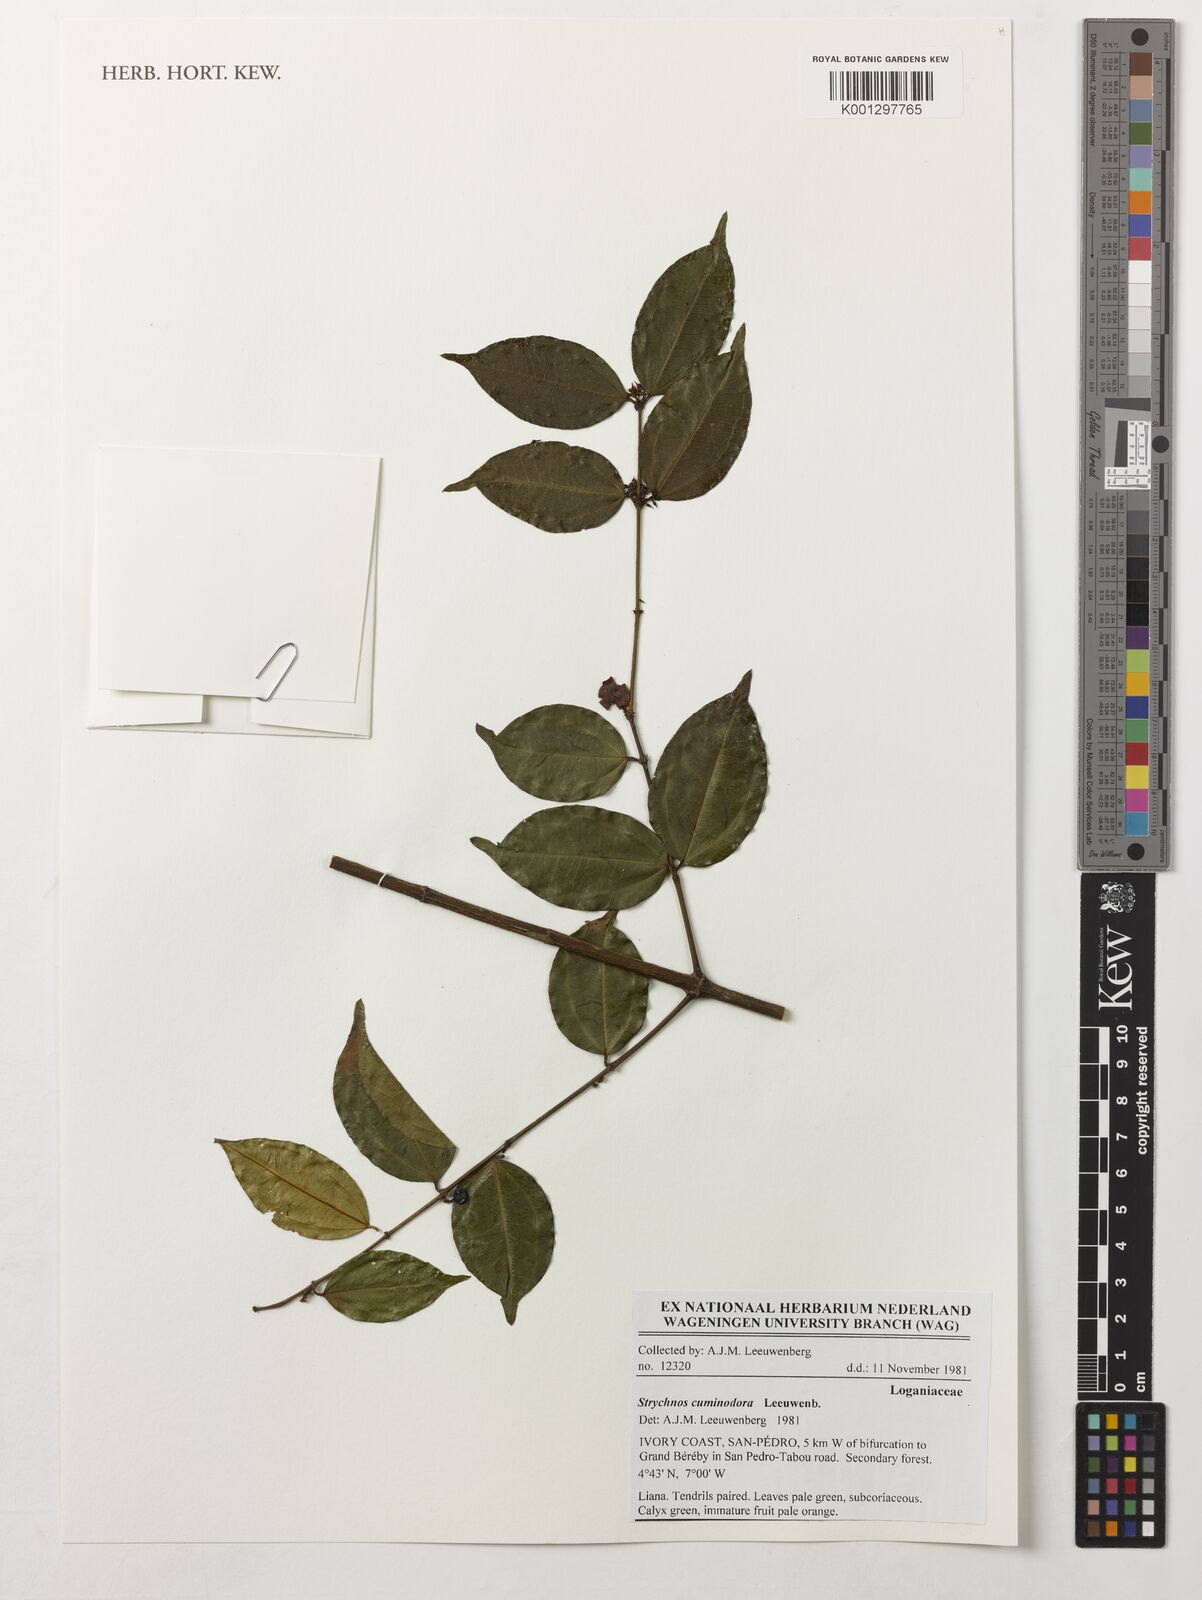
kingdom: Plantae
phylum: Tracheophyta
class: Magnoliopsida
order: Gentianales
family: Loganiaceae
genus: Strychnos
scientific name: Strychnos cuminodora
